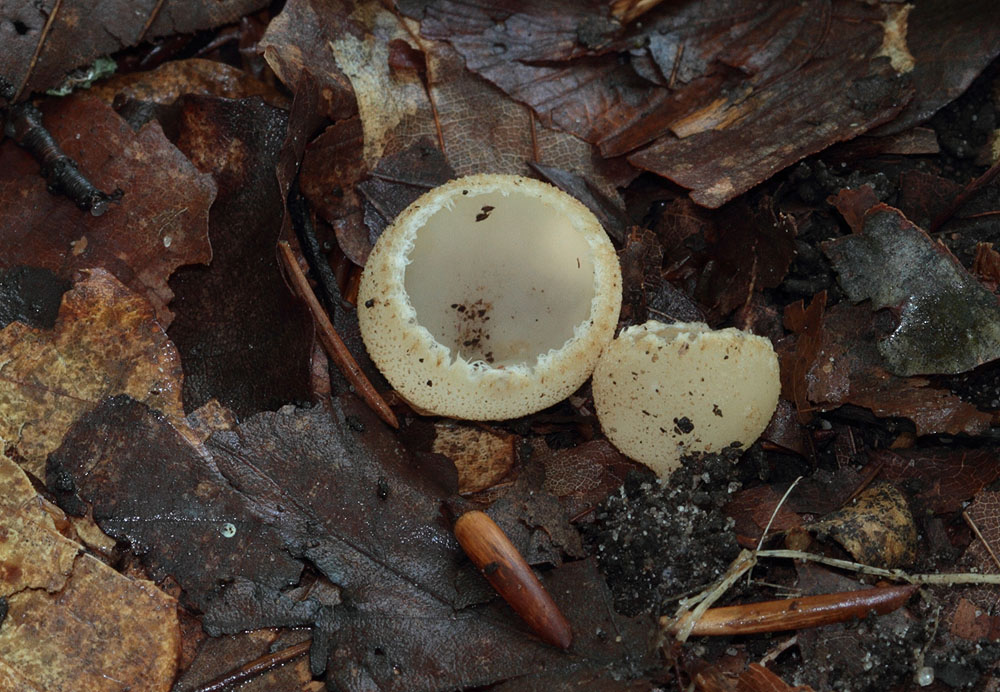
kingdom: Fungi
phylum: Ascomycota
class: Pezizomycetes
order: Pezizales
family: Pyronemataceae
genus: Tarzetta
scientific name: Tarzetta cupularis
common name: gulbrun pokalbæger
